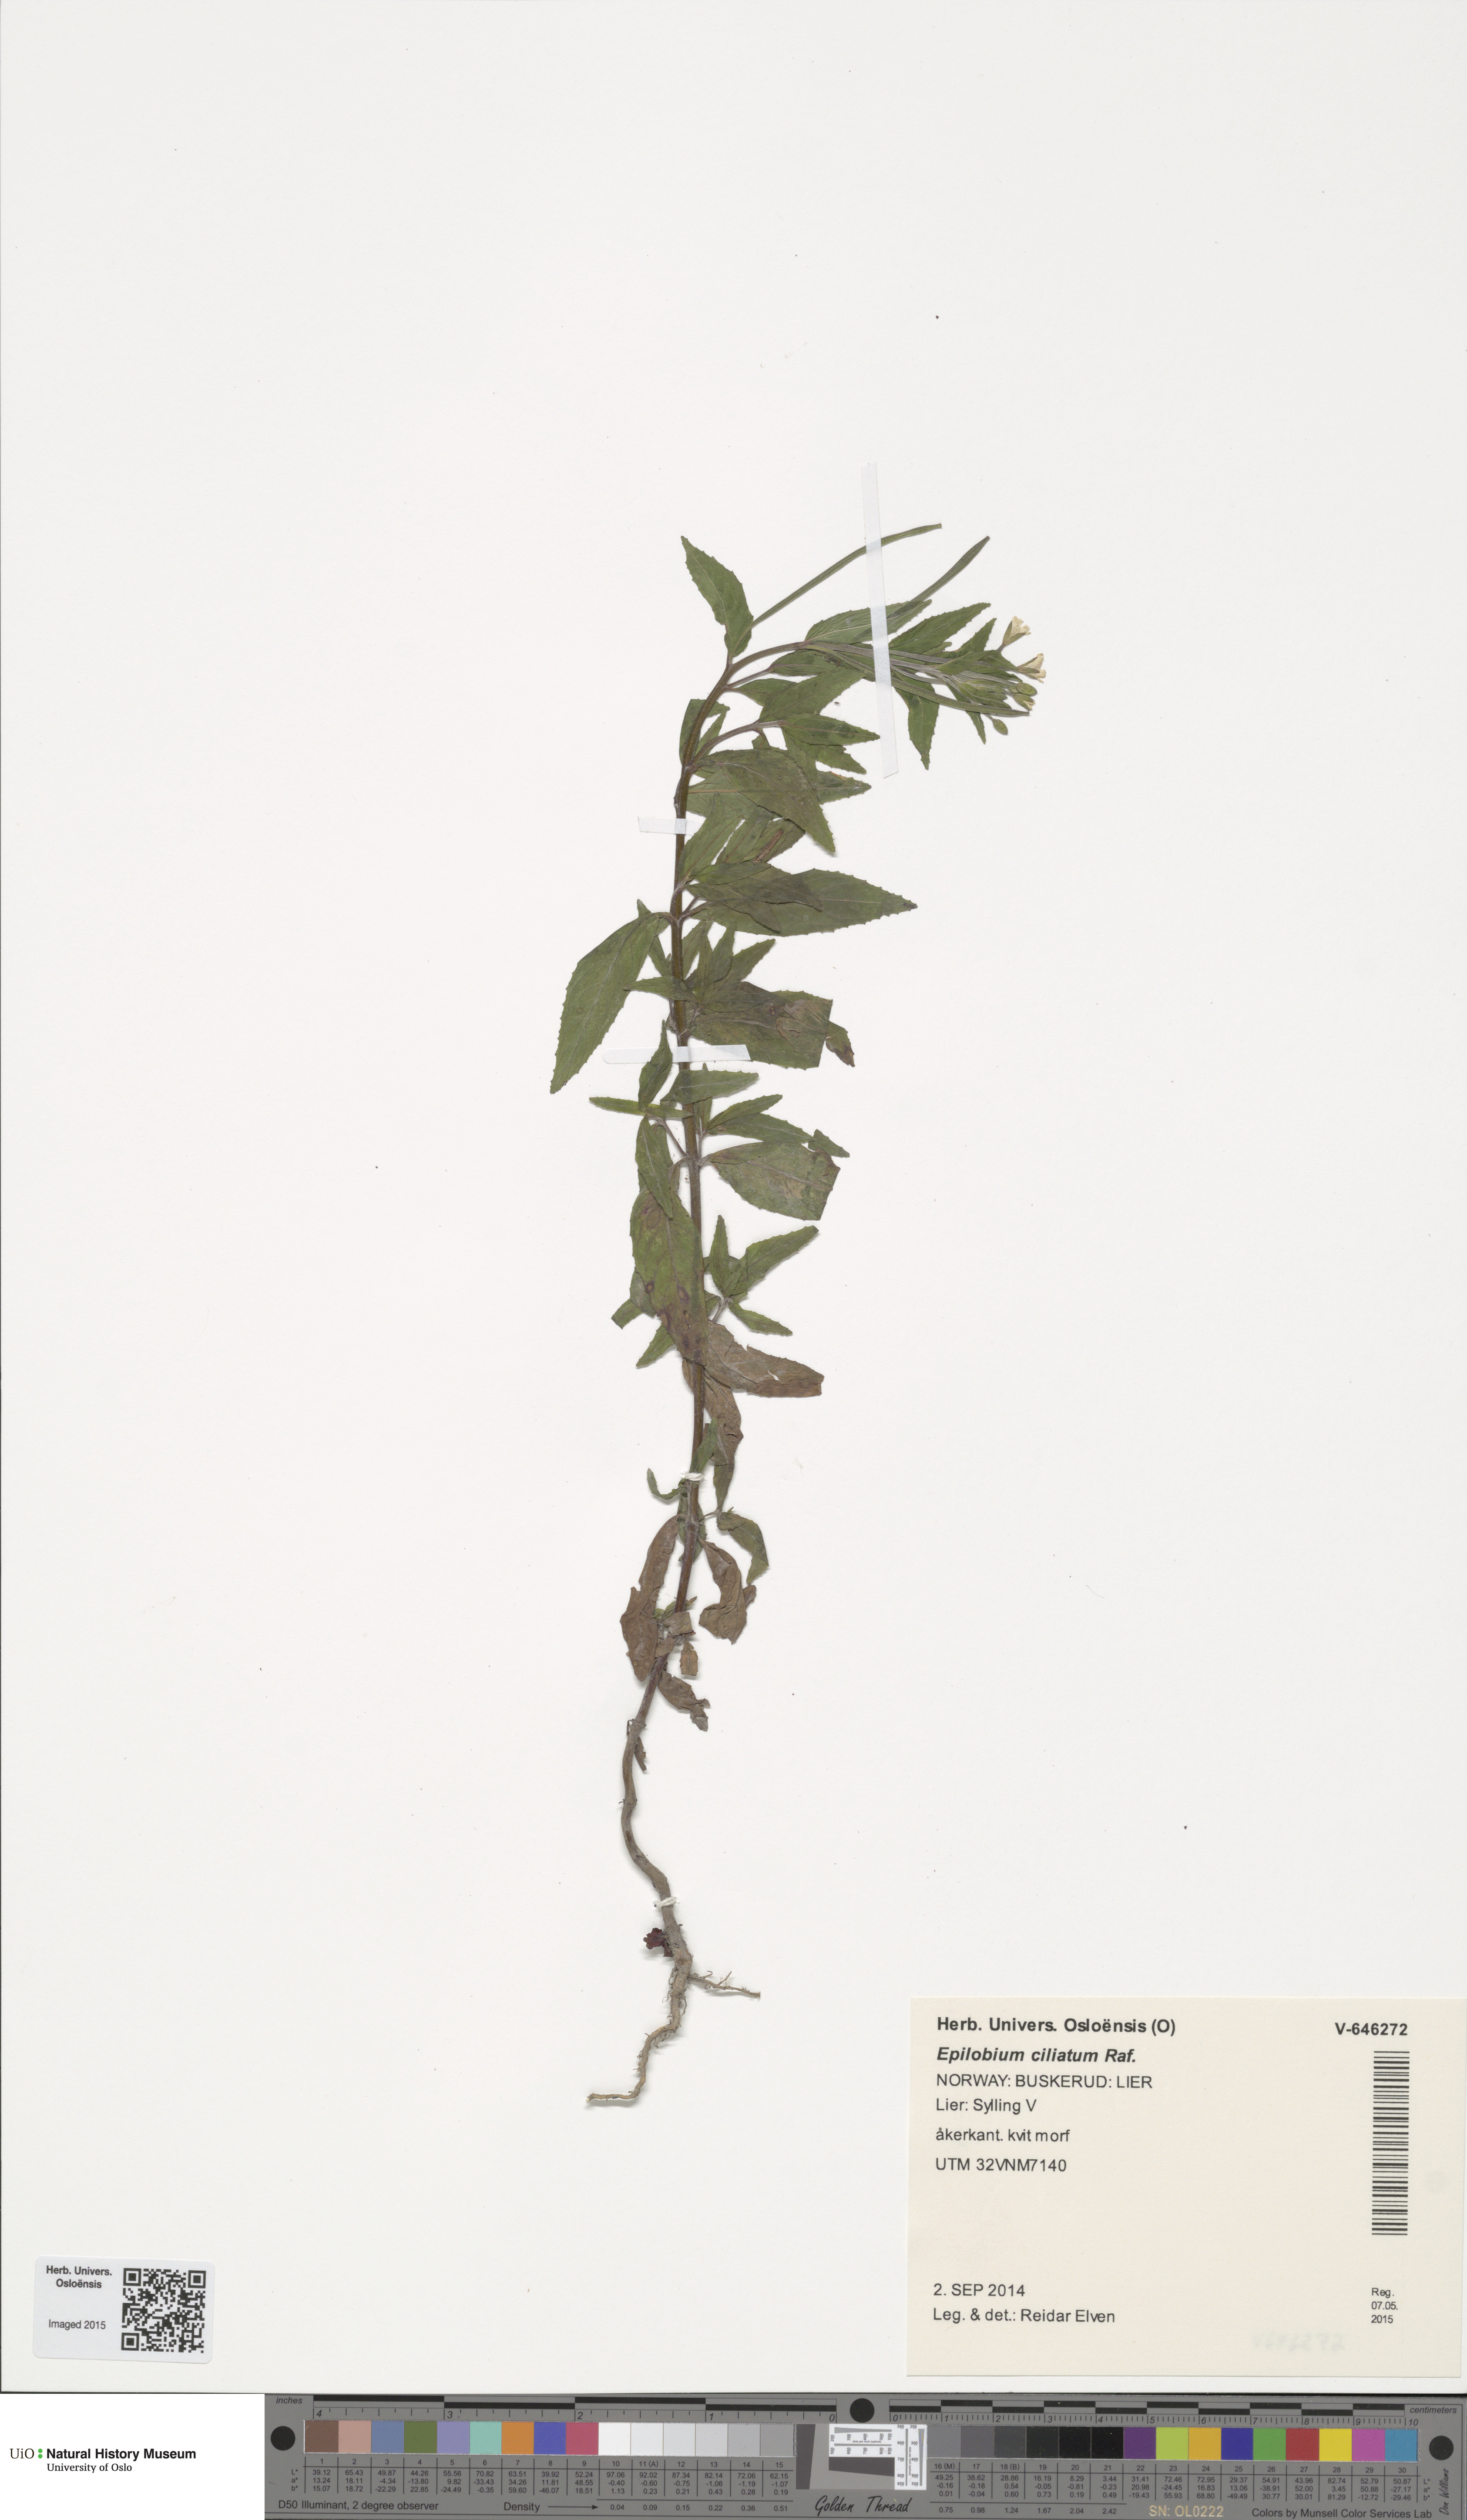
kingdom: Plantae
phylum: Tracheophyta
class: Magnoliopsida
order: Myrtales
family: Onagraceae
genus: Epilobium
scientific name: Epilobium ciliatum
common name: American willowherb
